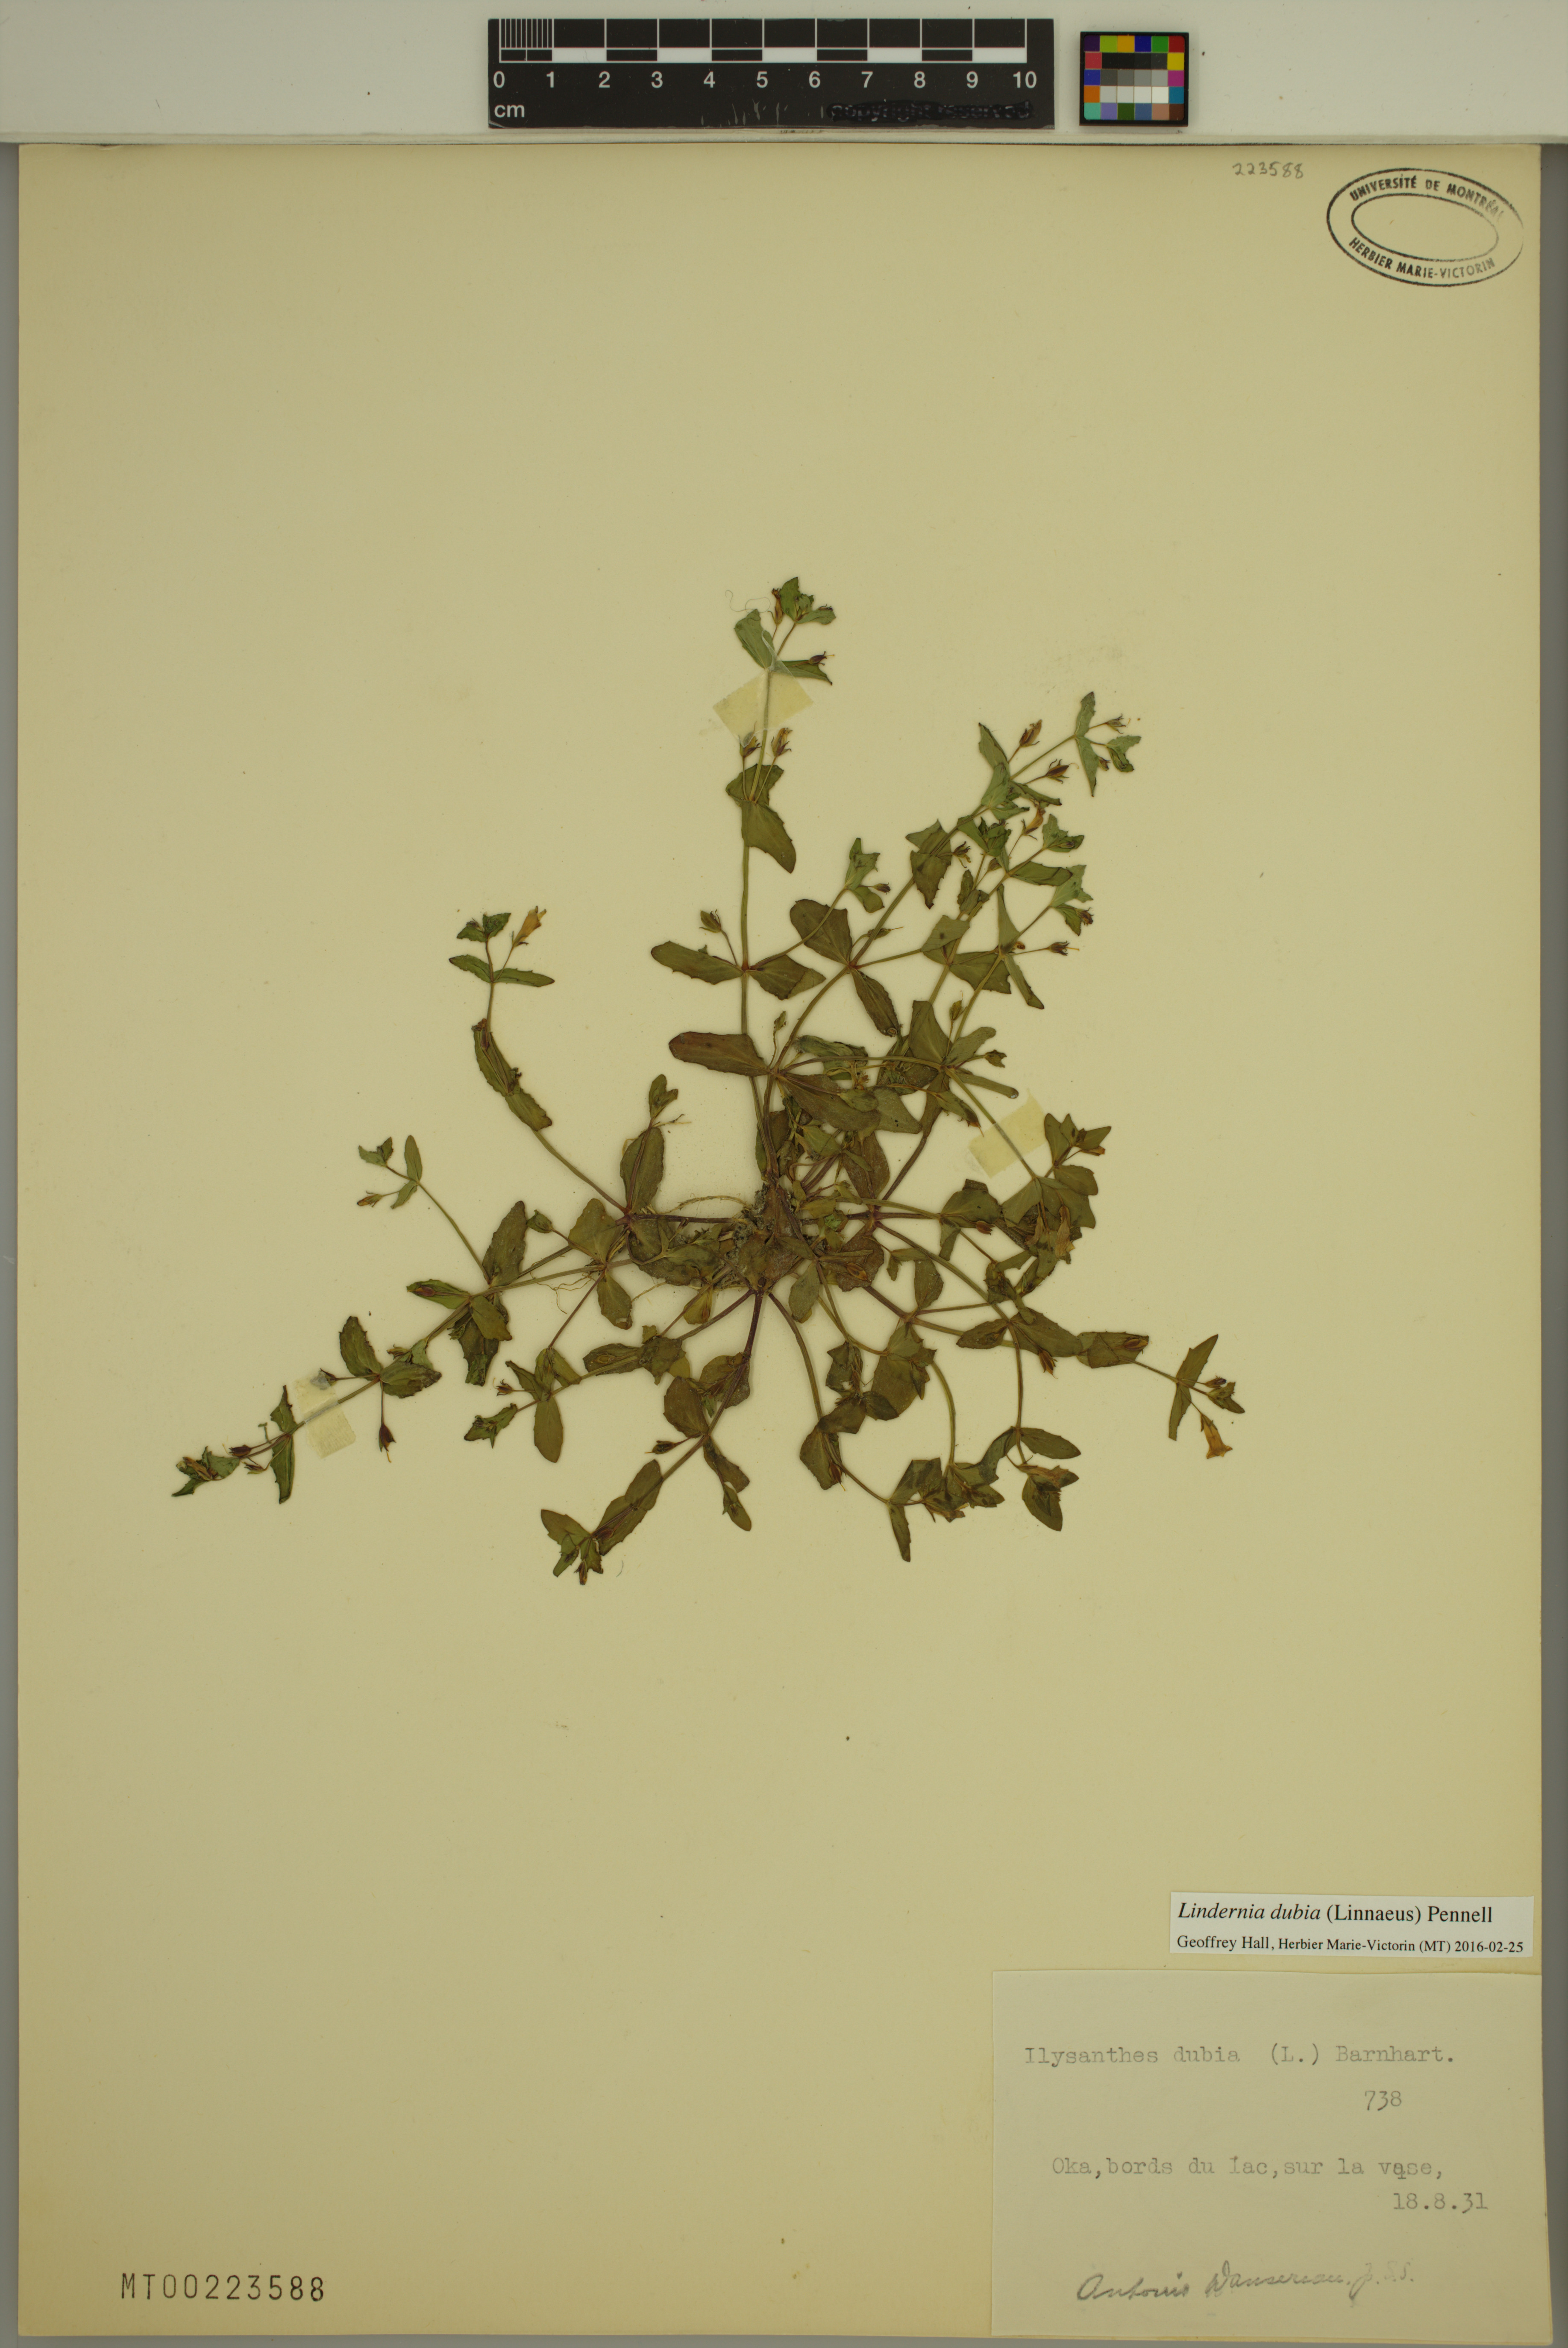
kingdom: Plantae
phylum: Tracheophyta
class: Magnoliopsida
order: Lamiales
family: Linderniaceae
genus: Lindernia
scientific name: Lindernia dubia
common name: Annual false pimpernel
